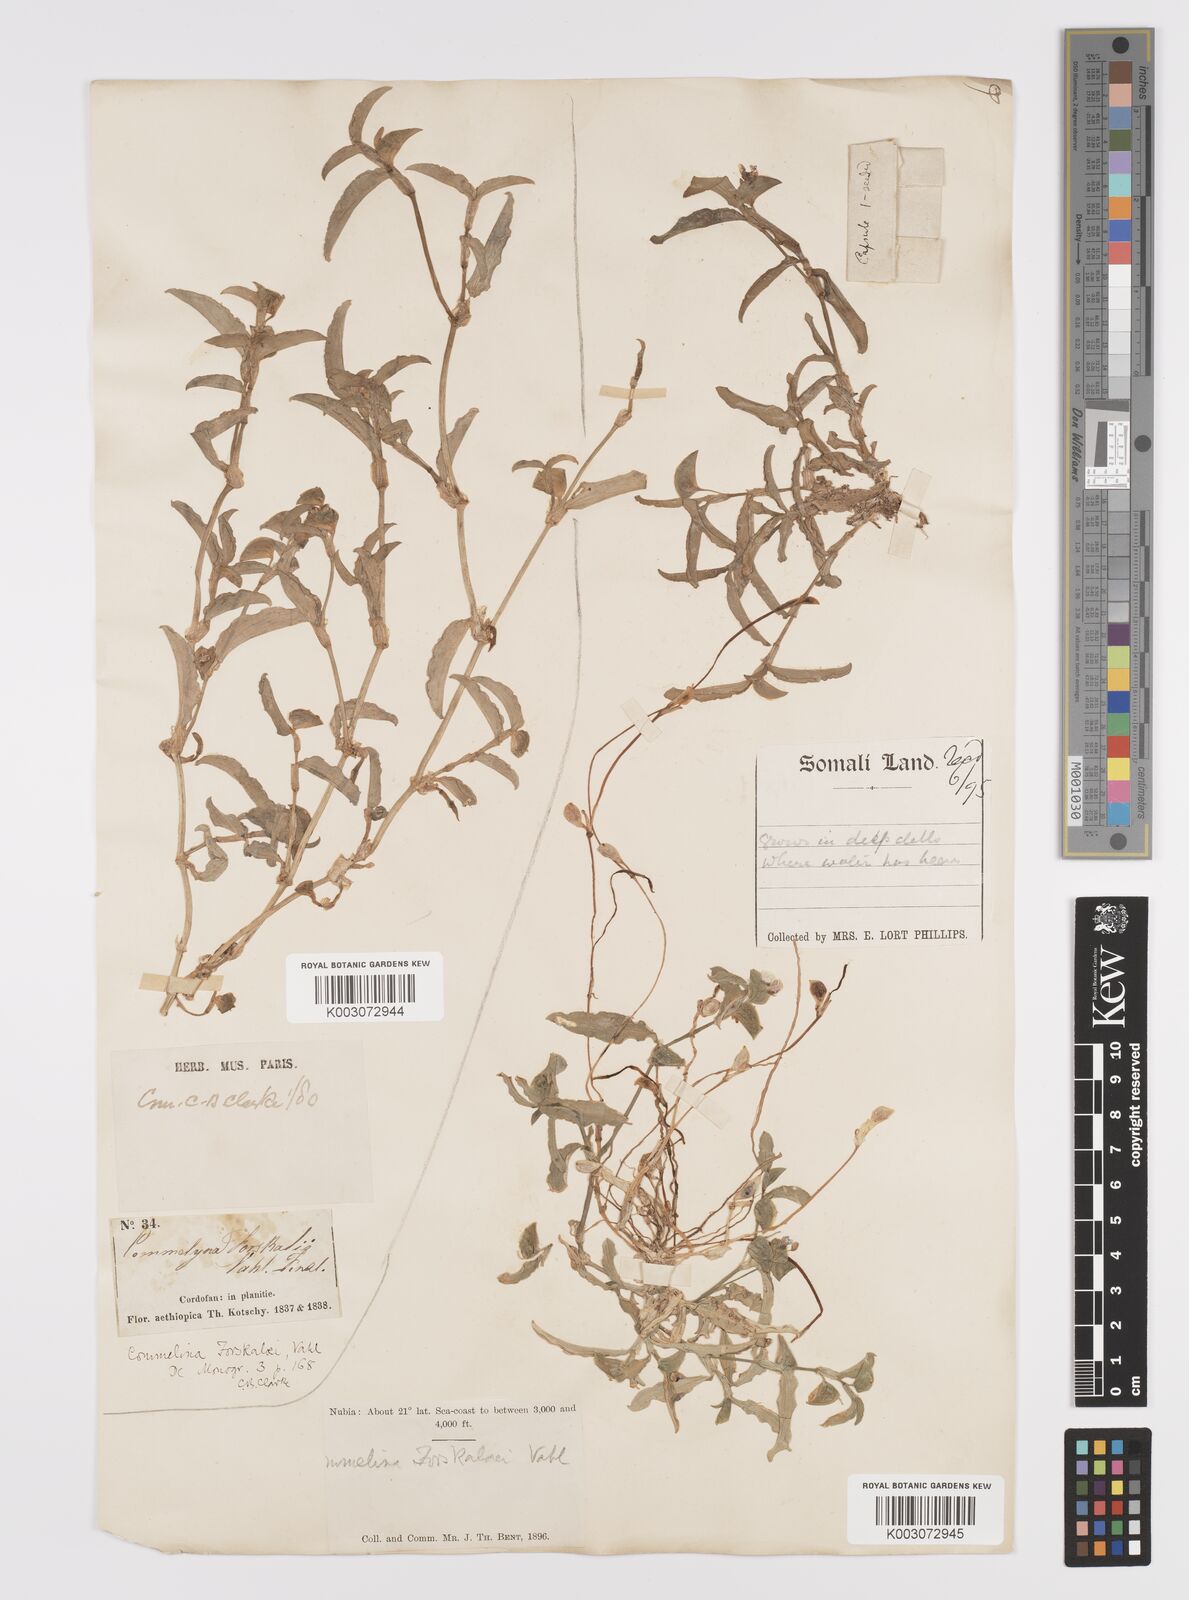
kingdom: Plantae
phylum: Tracheophyta
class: Liliopsida
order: Commelinales
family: Commelinaceae
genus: Commelina
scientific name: Commelina forskaolii
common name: Rat's ear
